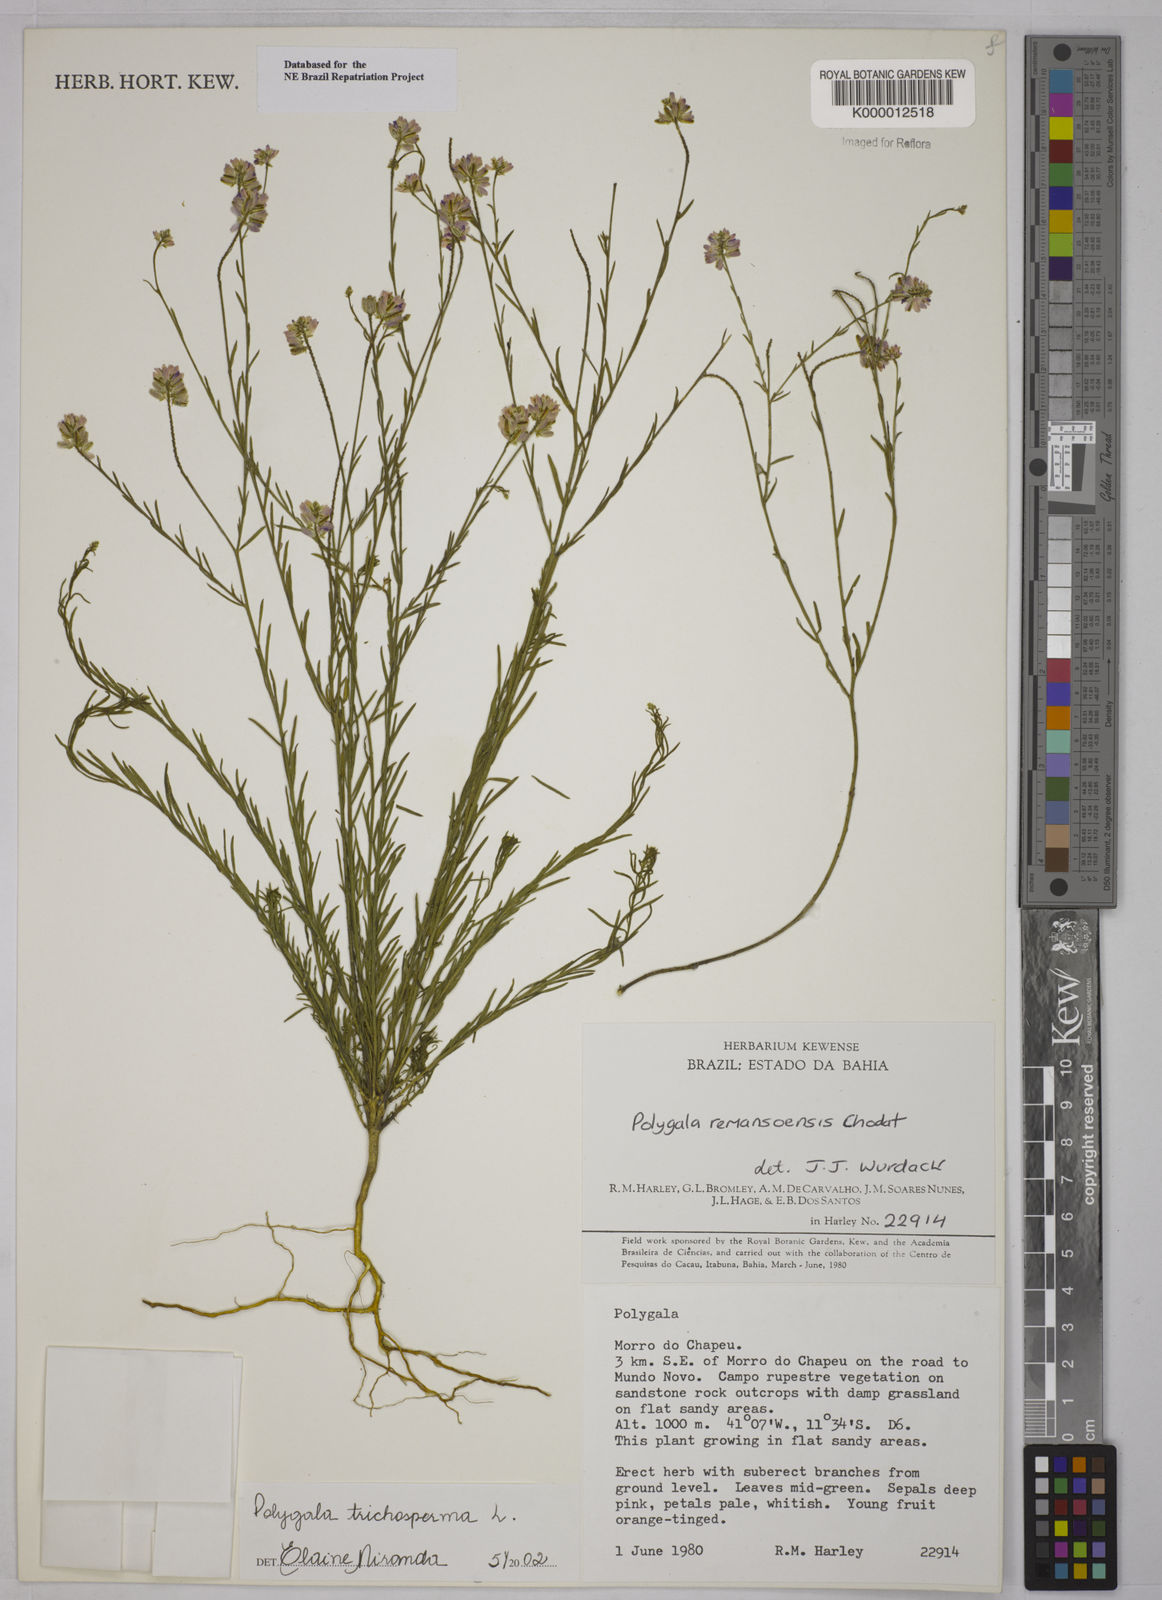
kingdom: Plantae
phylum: Tracheophyta
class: Magnoliopsida
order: Fabales
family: Polygalaceae
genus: Polygala
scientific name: Polygala
